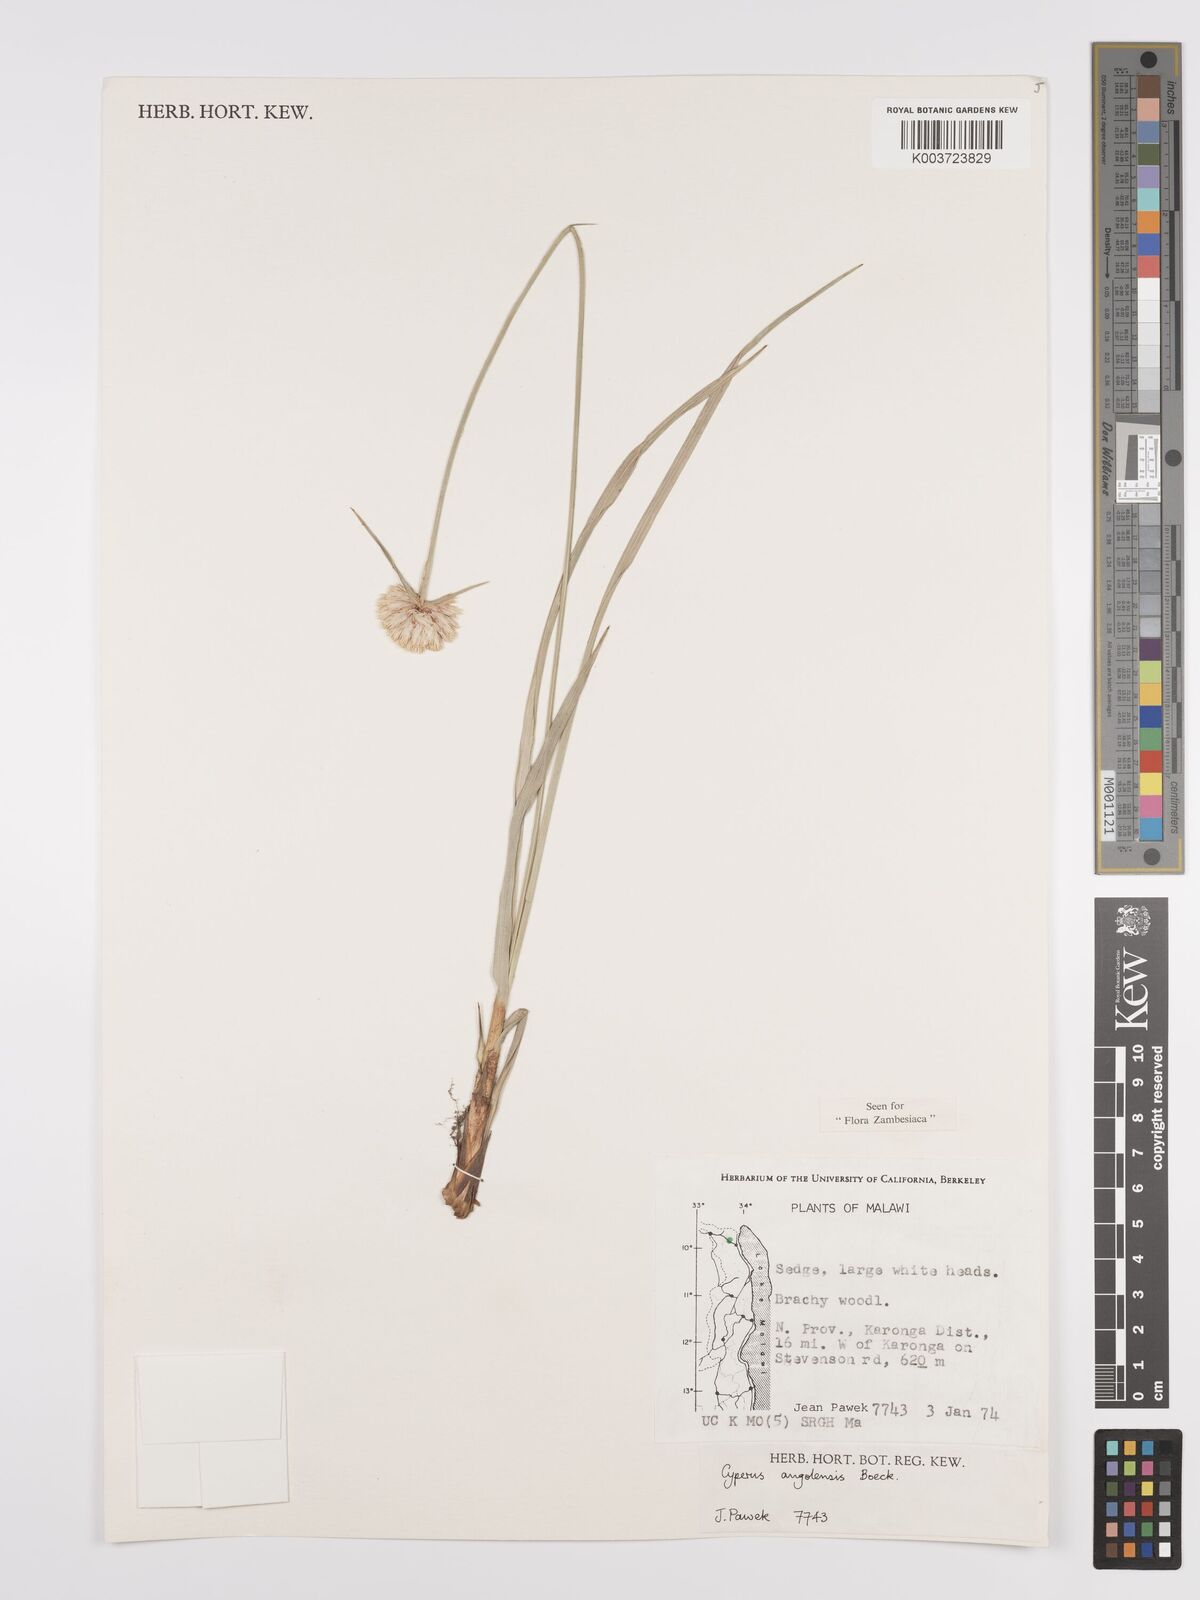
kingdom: Plantae
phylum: Tracheophyta
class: Liliopsida
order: Poales
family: Cyperaceae
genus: Cyperus
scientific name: Cyperus angolensis
